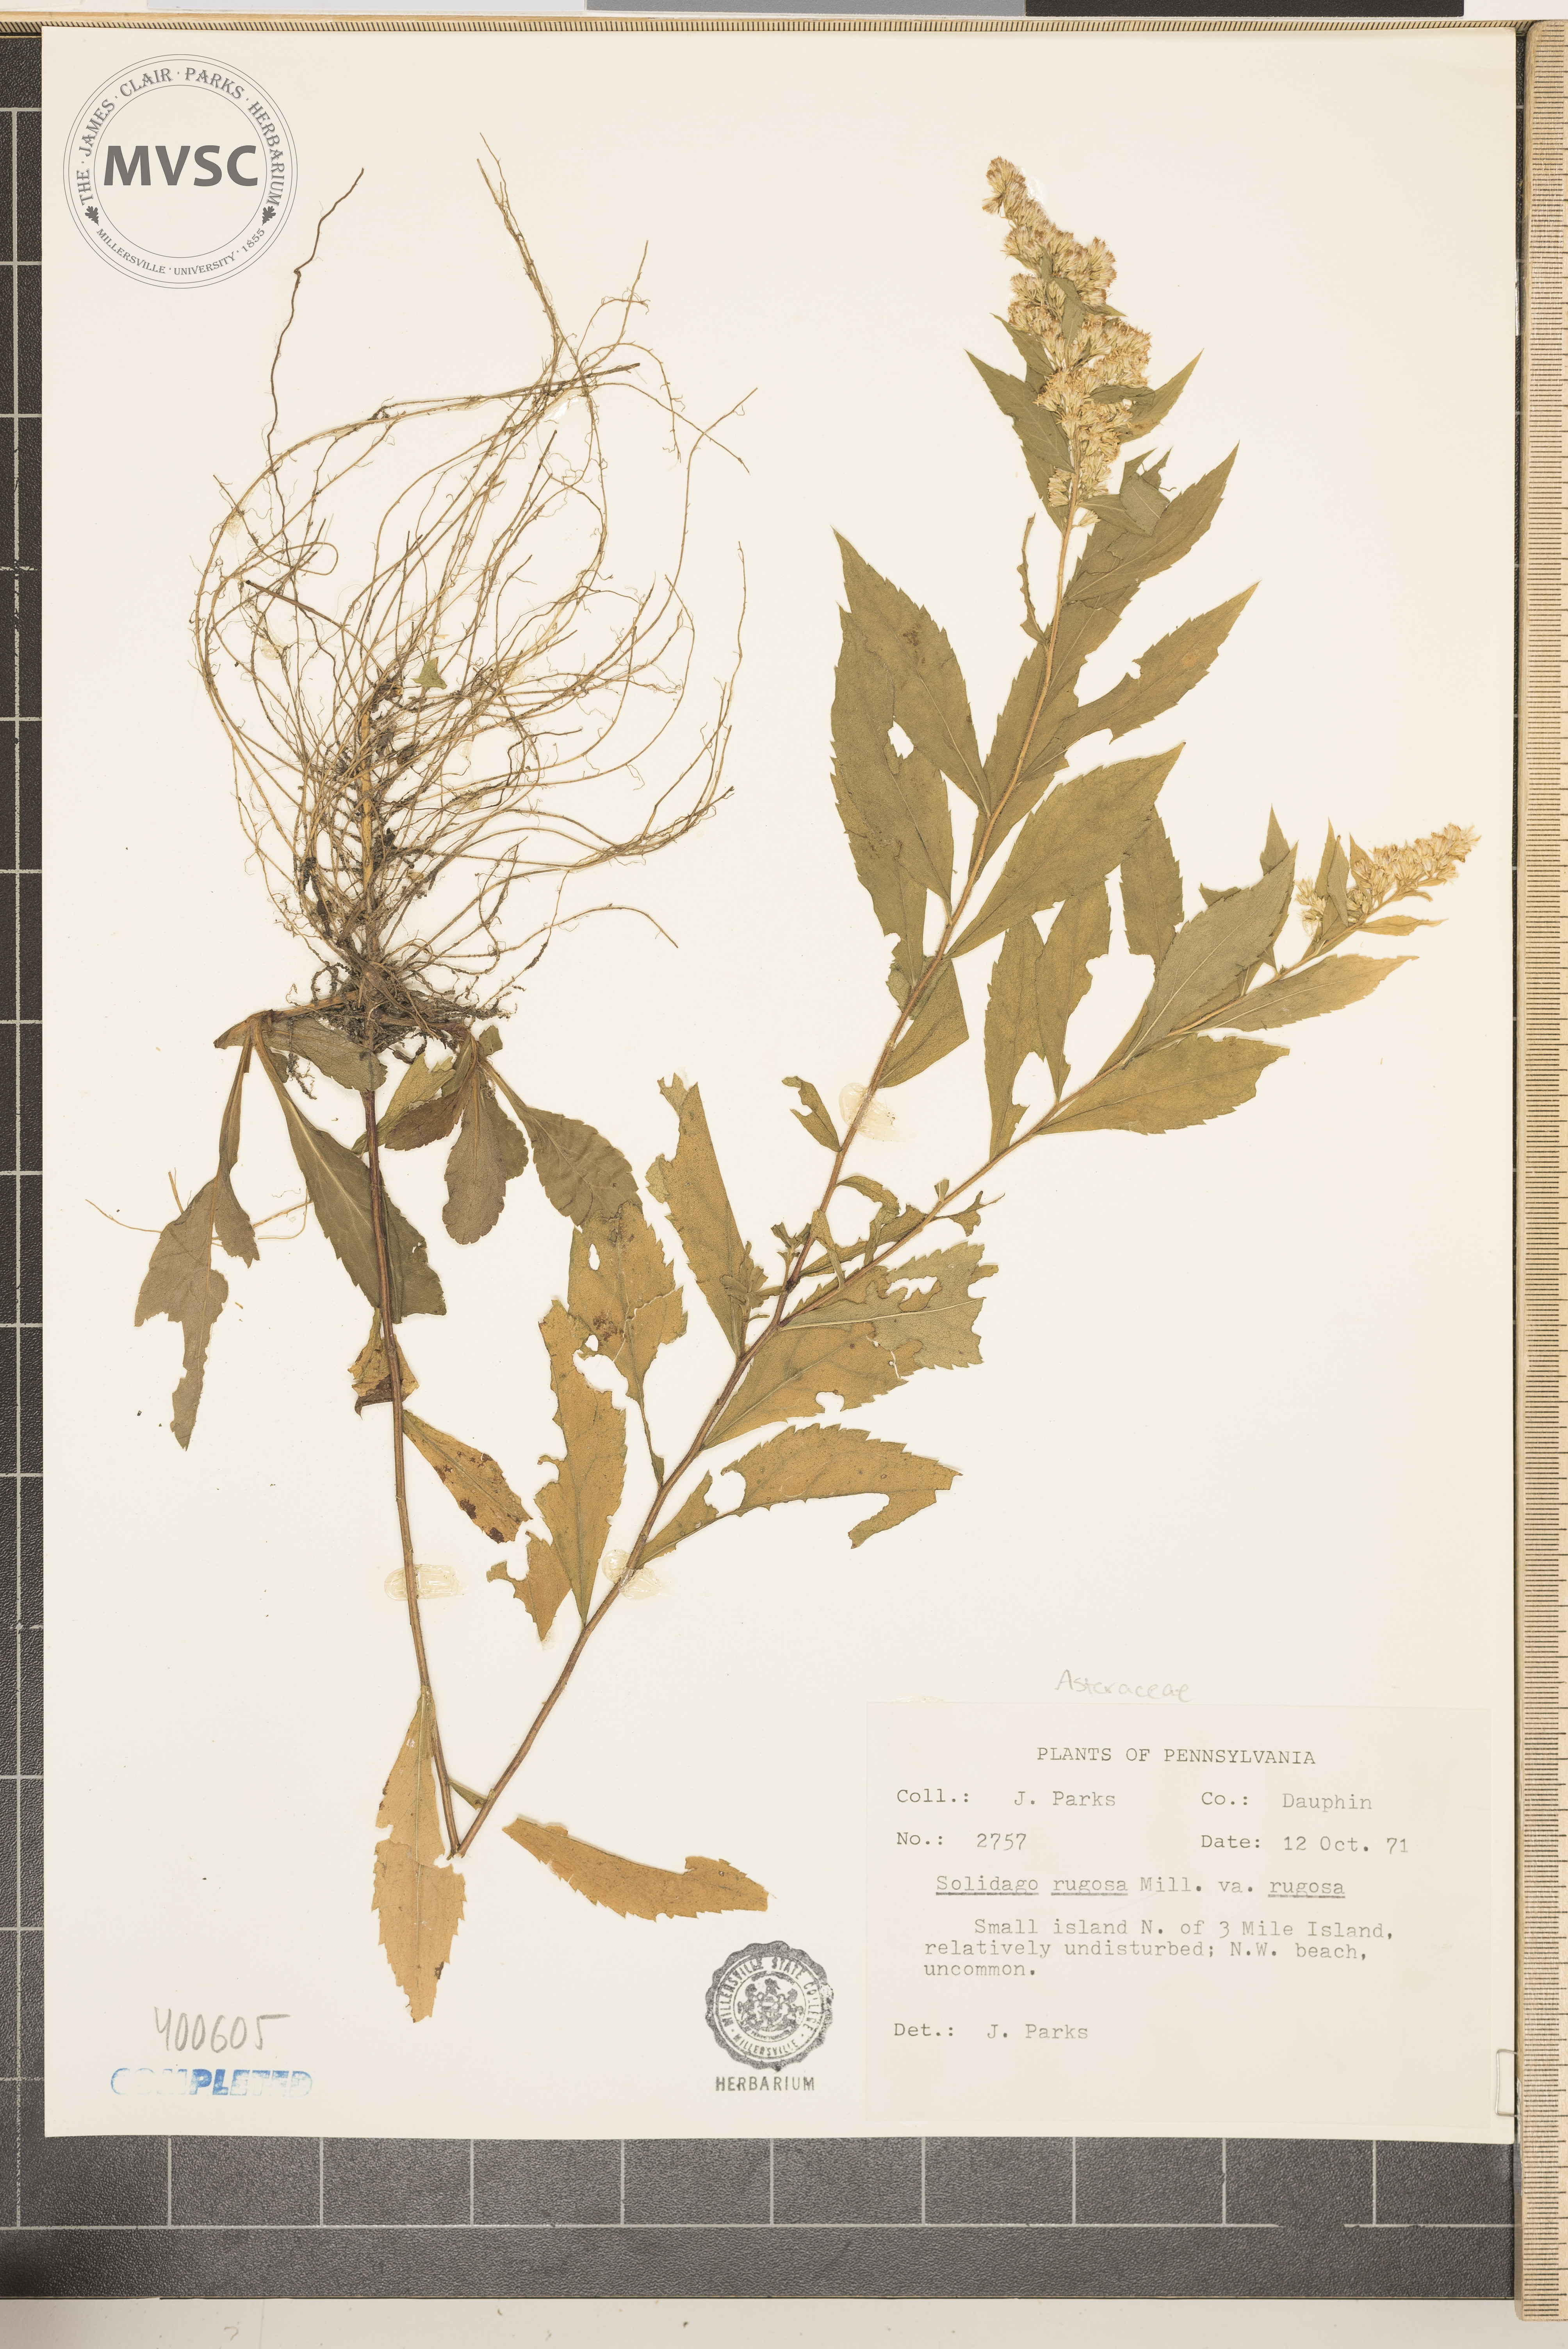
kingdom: Plantae
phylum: Tracheophyta
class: Magnoliopsida
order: Asterales
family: Asteraceae
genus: Solidago
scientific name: Solidago rugosa
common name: goldenrod
